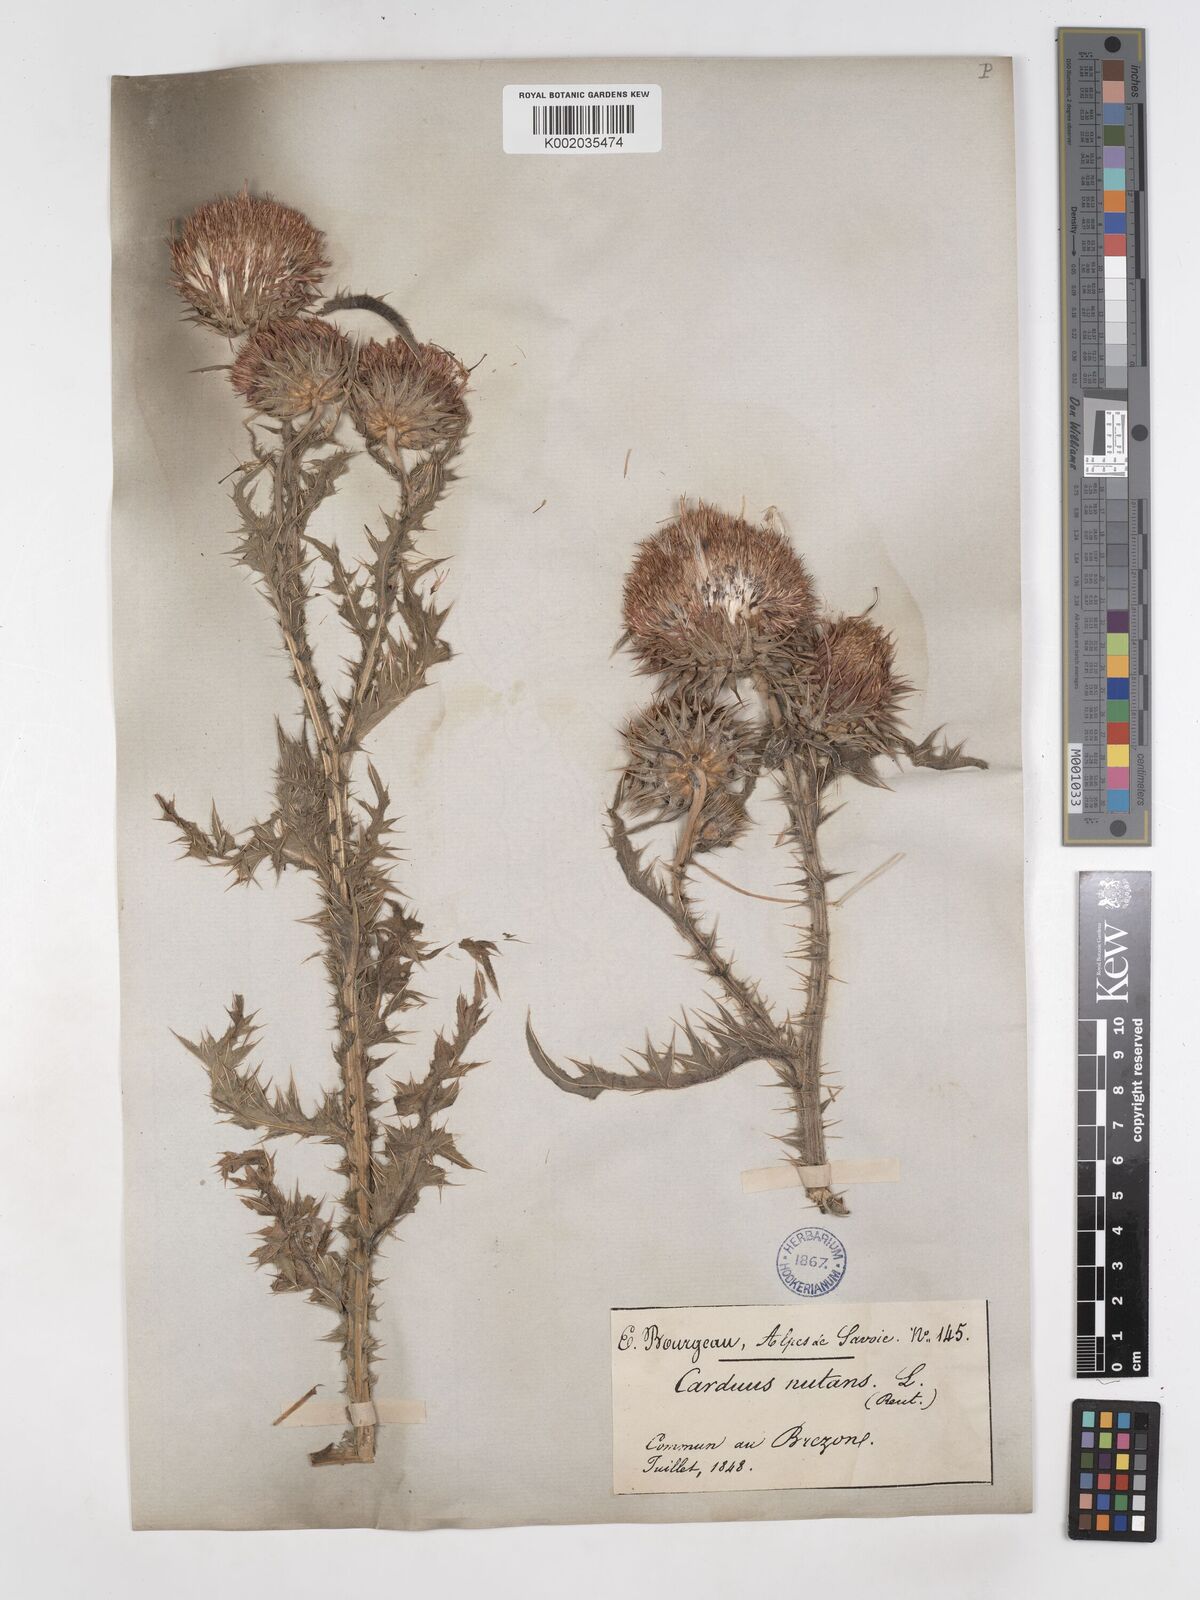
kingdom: Plantae
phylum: Tracheophyta
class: Magnoliopsida
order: Asterales
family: Asteraceae
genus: Carduus
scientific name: Carduus macrocephalus
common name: Giant thistle
